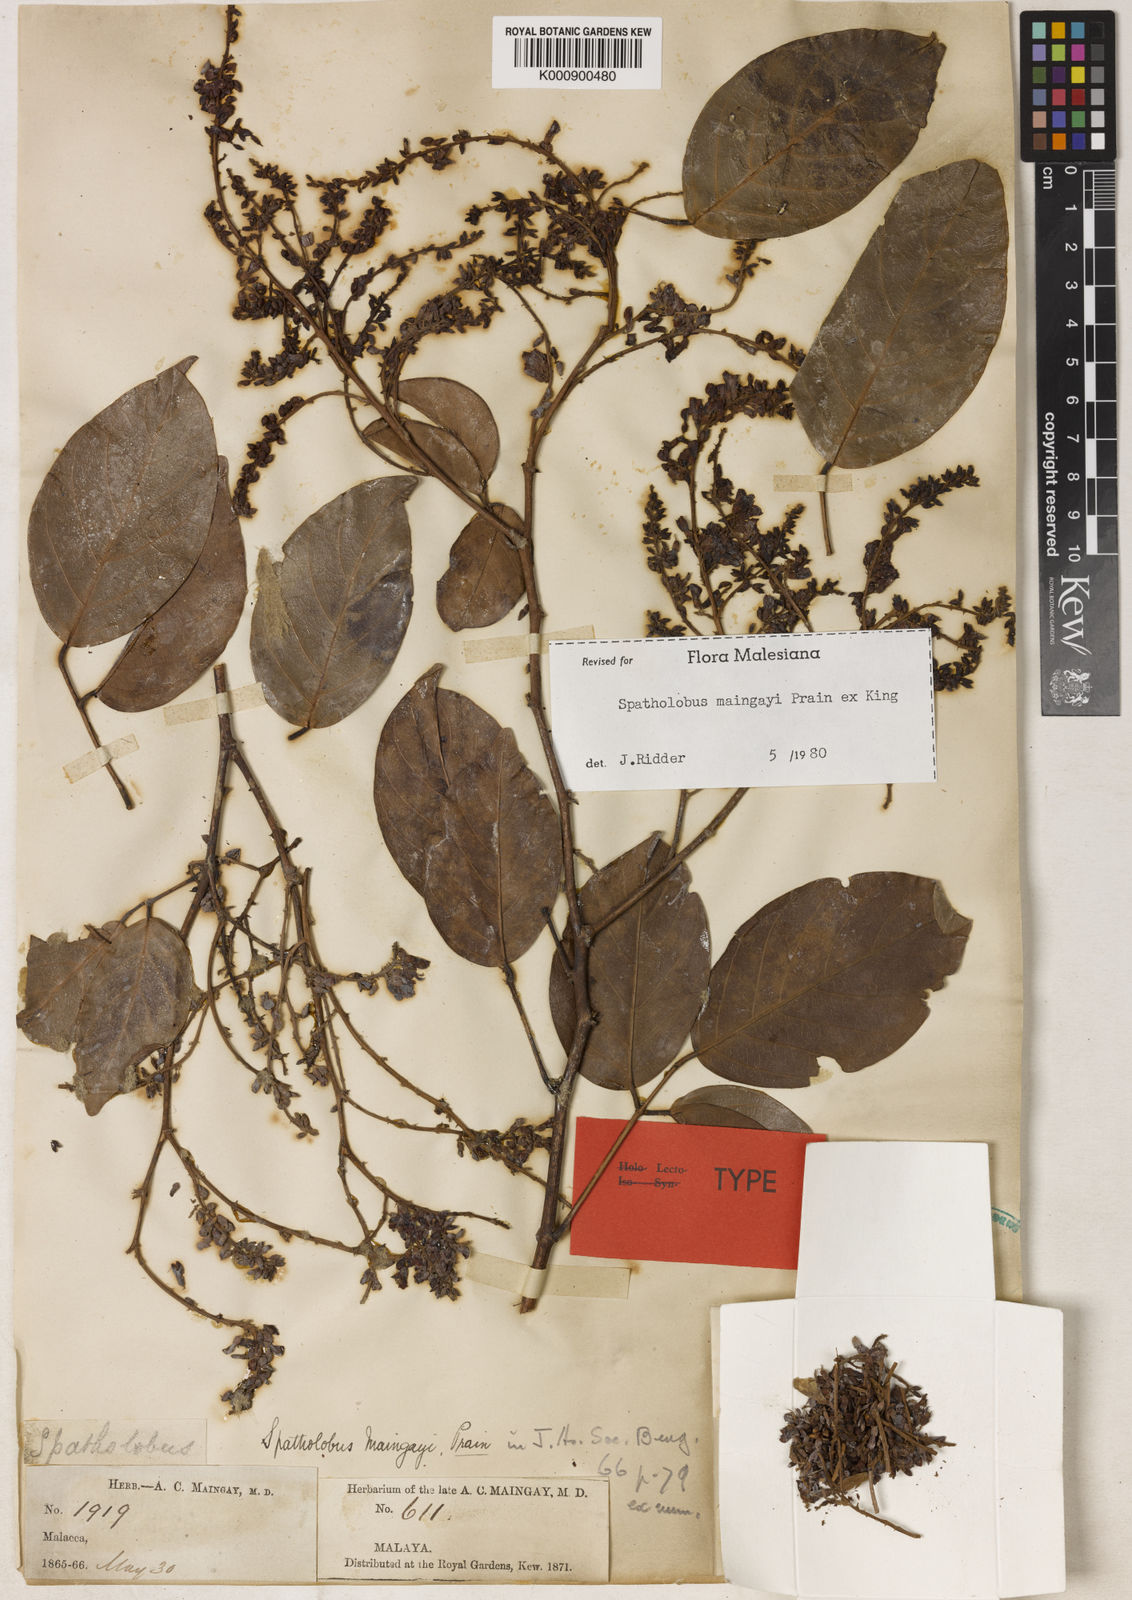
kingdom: Plantae
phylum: Tracheophyta
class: Magnoliopsida
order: Fabales
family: Fabaceae
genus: Spatholobus
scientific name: Spatholobus
